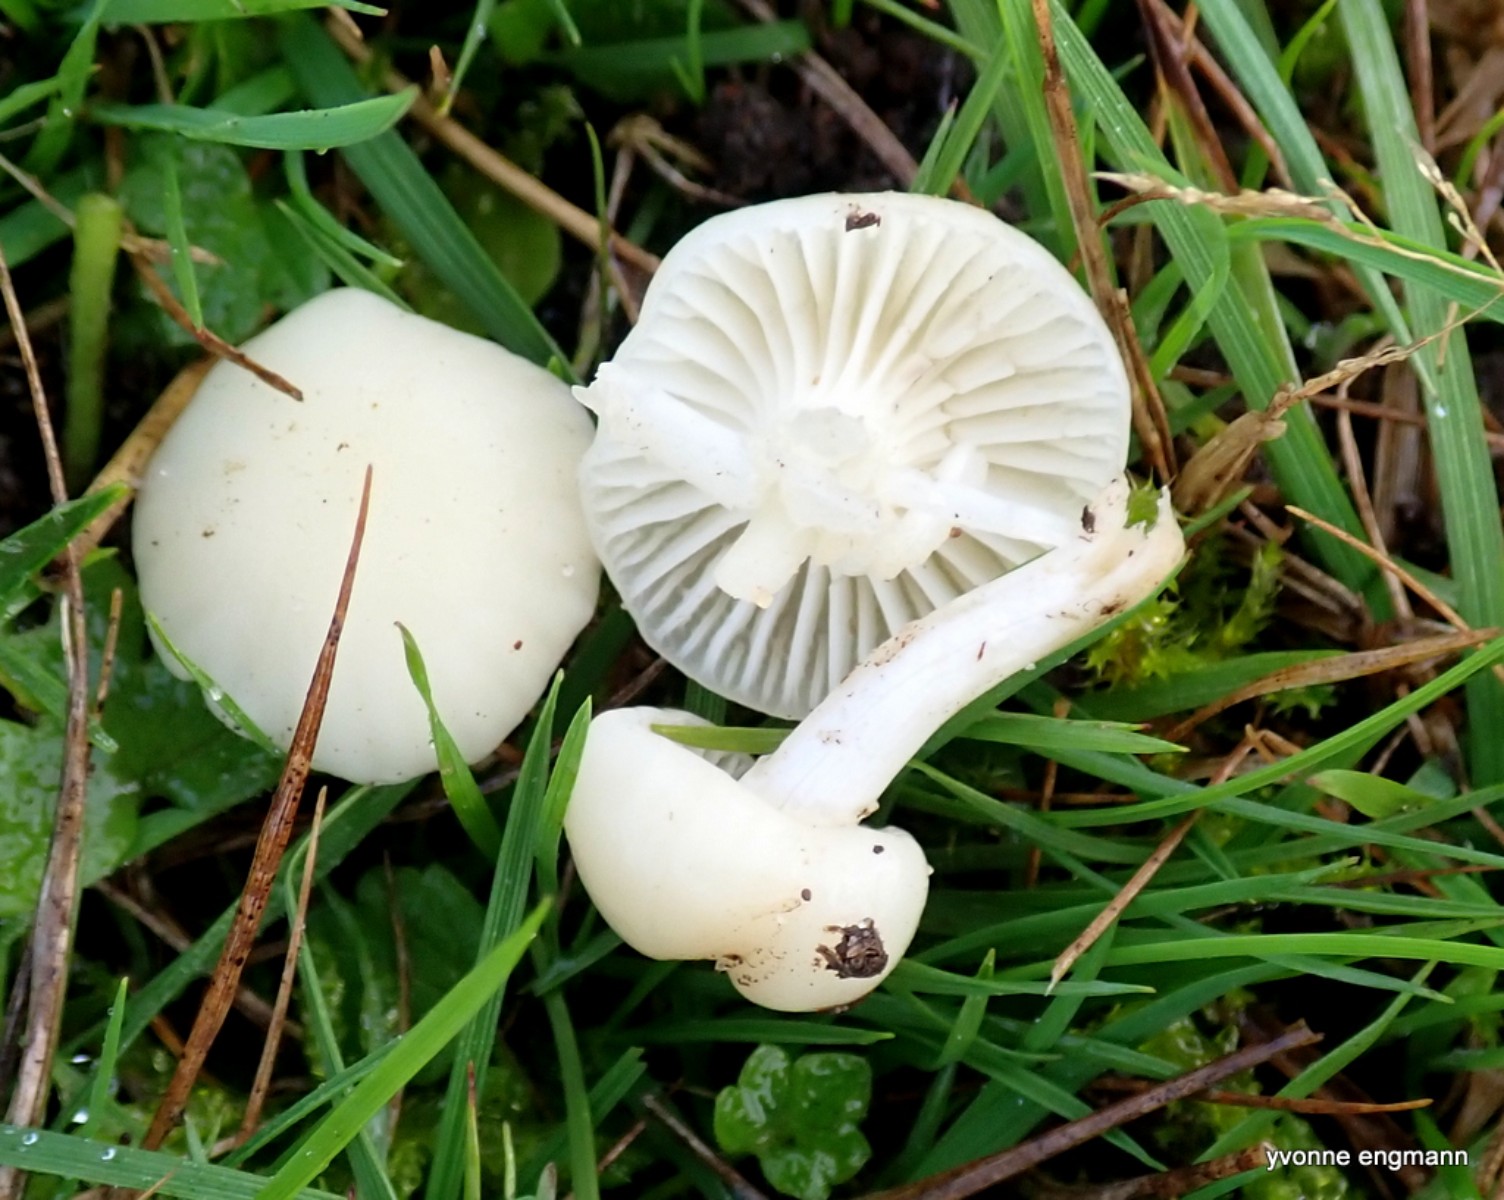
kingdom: Fungi
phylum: Basidiomycota
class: Agaricomycetes
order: Agaricales
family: Hygrophoraceae
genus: Cuphophyllus
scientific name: Cuphophyllus virgineus
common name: snehvid vokshat
